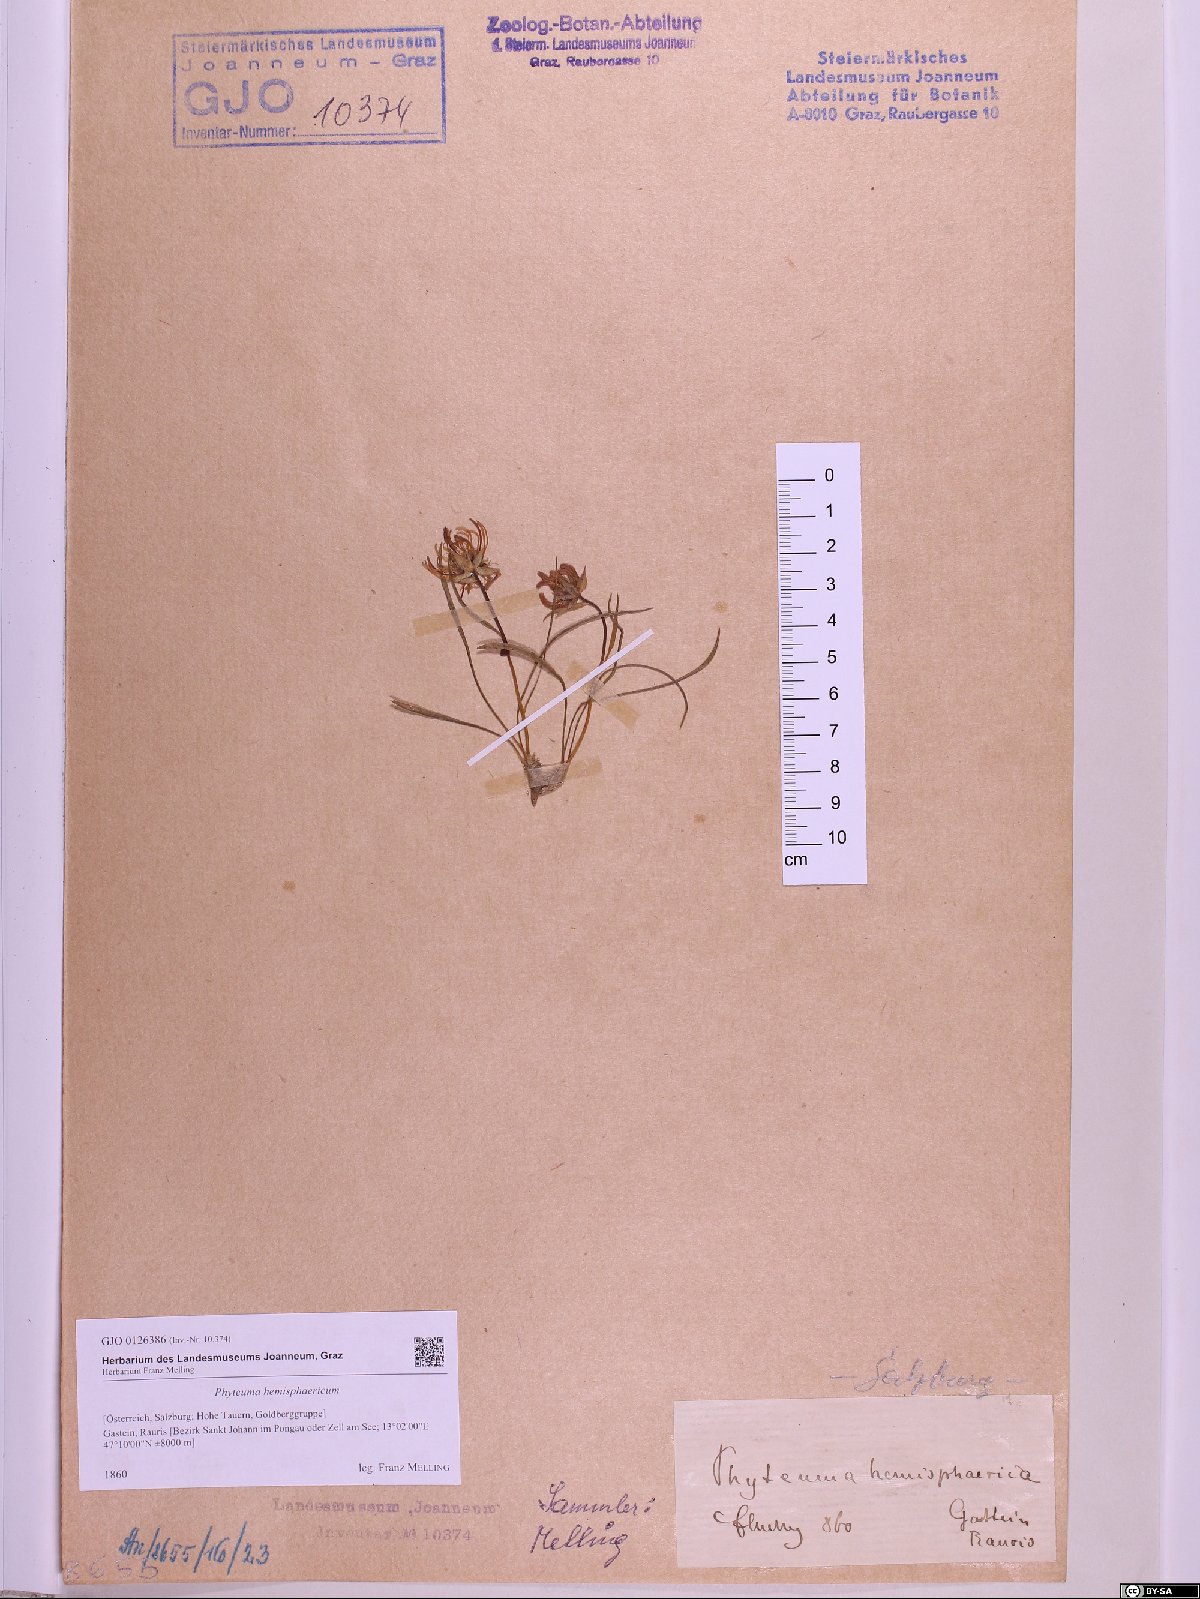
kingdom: Plantae
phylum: Tracheophyta
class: Magnoliopsida
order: Asterales
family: Campanulaceae
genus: Phyteuma
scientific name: Phyteuma hemisphaericum
